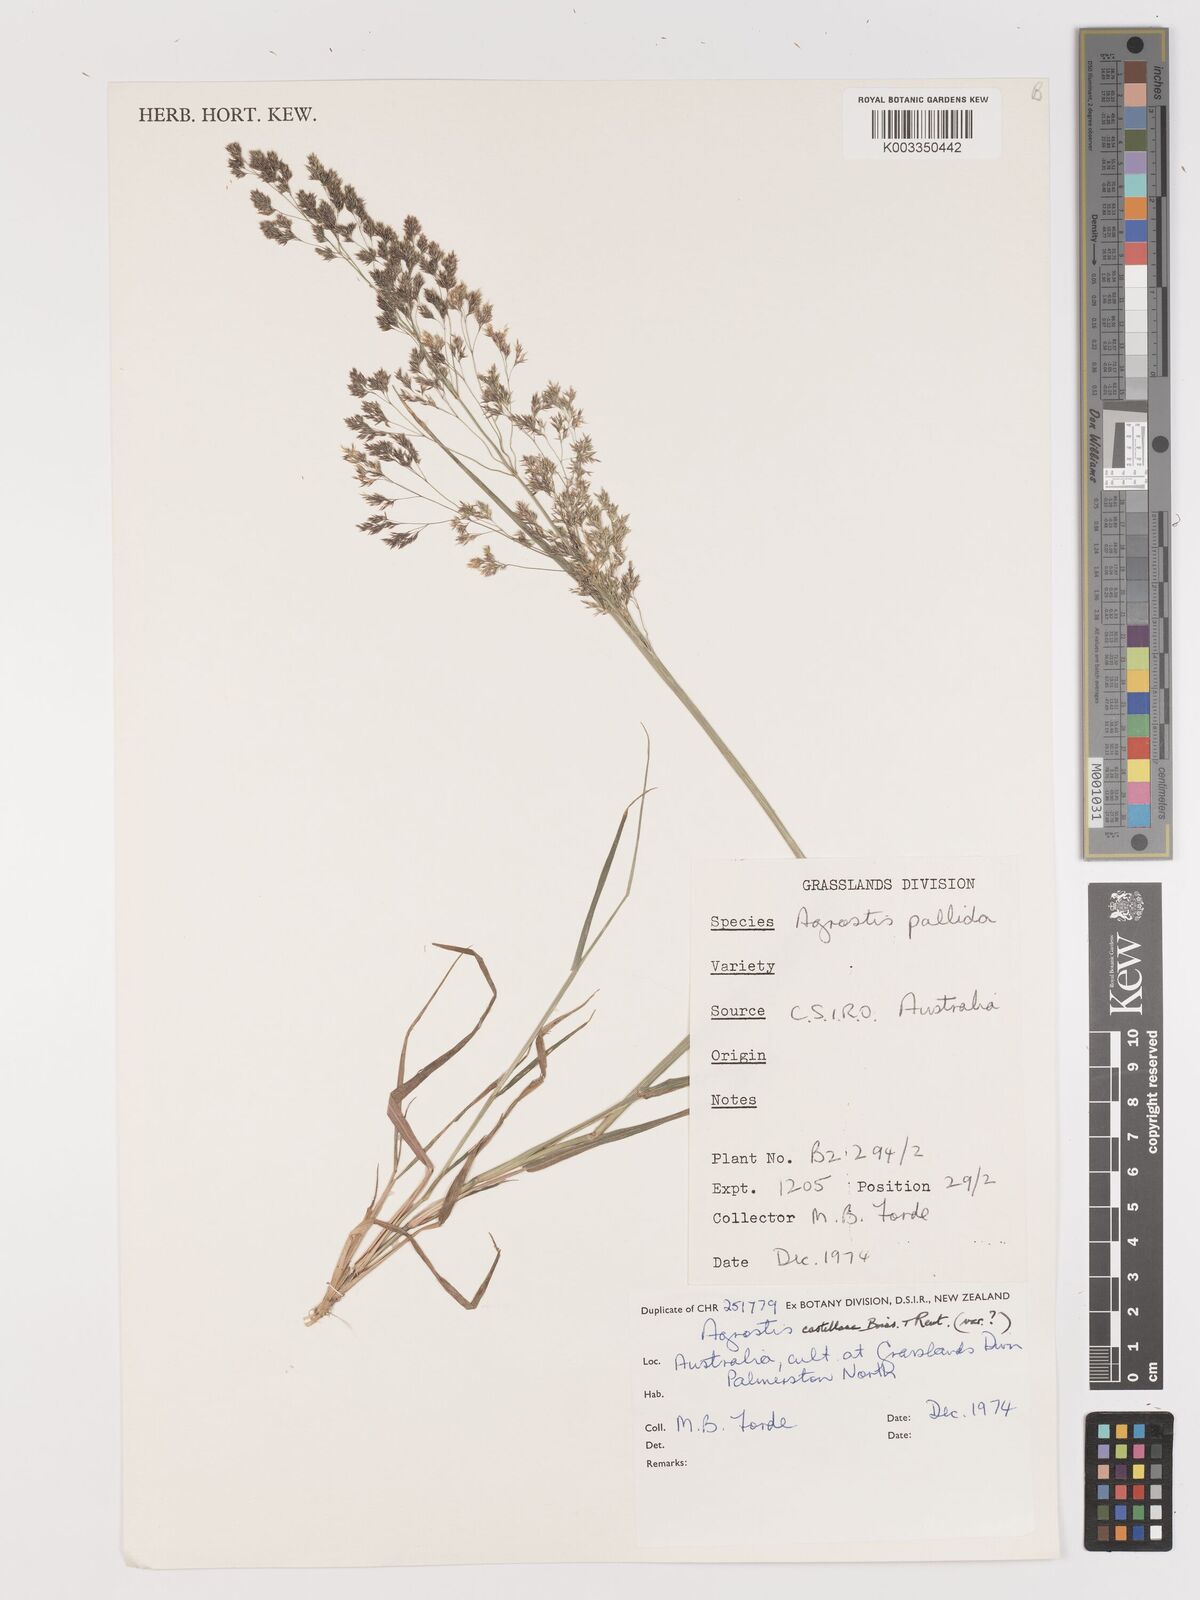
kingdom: Plantae
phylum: Tracheophyta
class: Liliopsida
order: Poales
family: Poaceae
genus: Agrostis
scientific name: Agrostis castellana
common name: Highland bent
